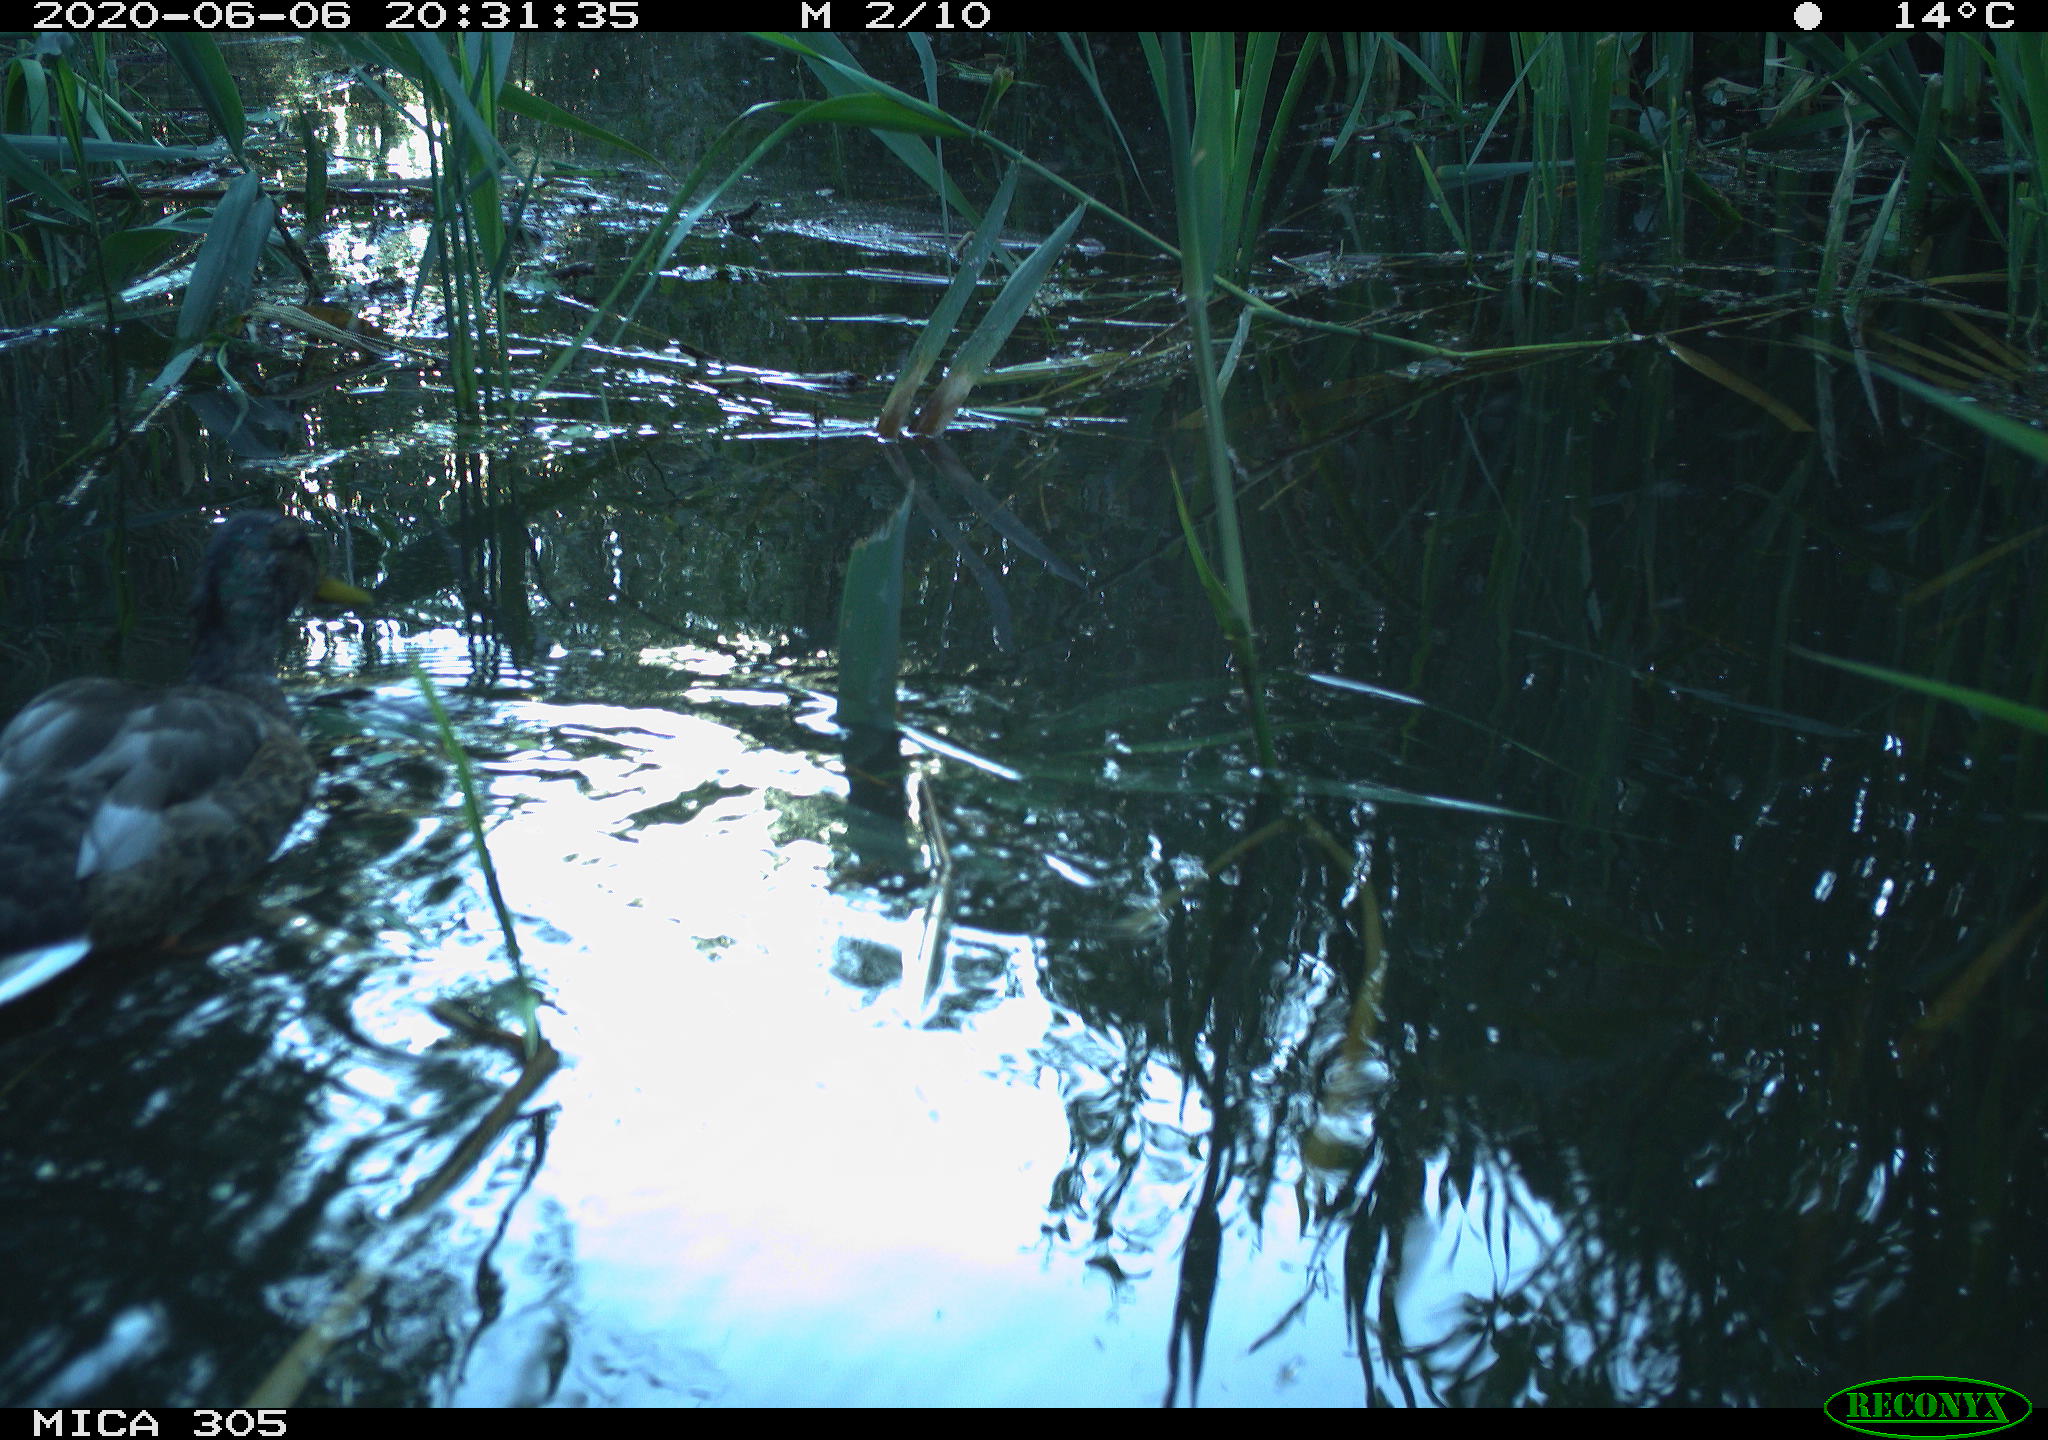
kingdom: Animalia
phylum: Chordata
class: Aves
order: Anseriformes
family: Anatidae
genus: Anas
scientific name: Anas platyrhynchos
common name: Mallard
